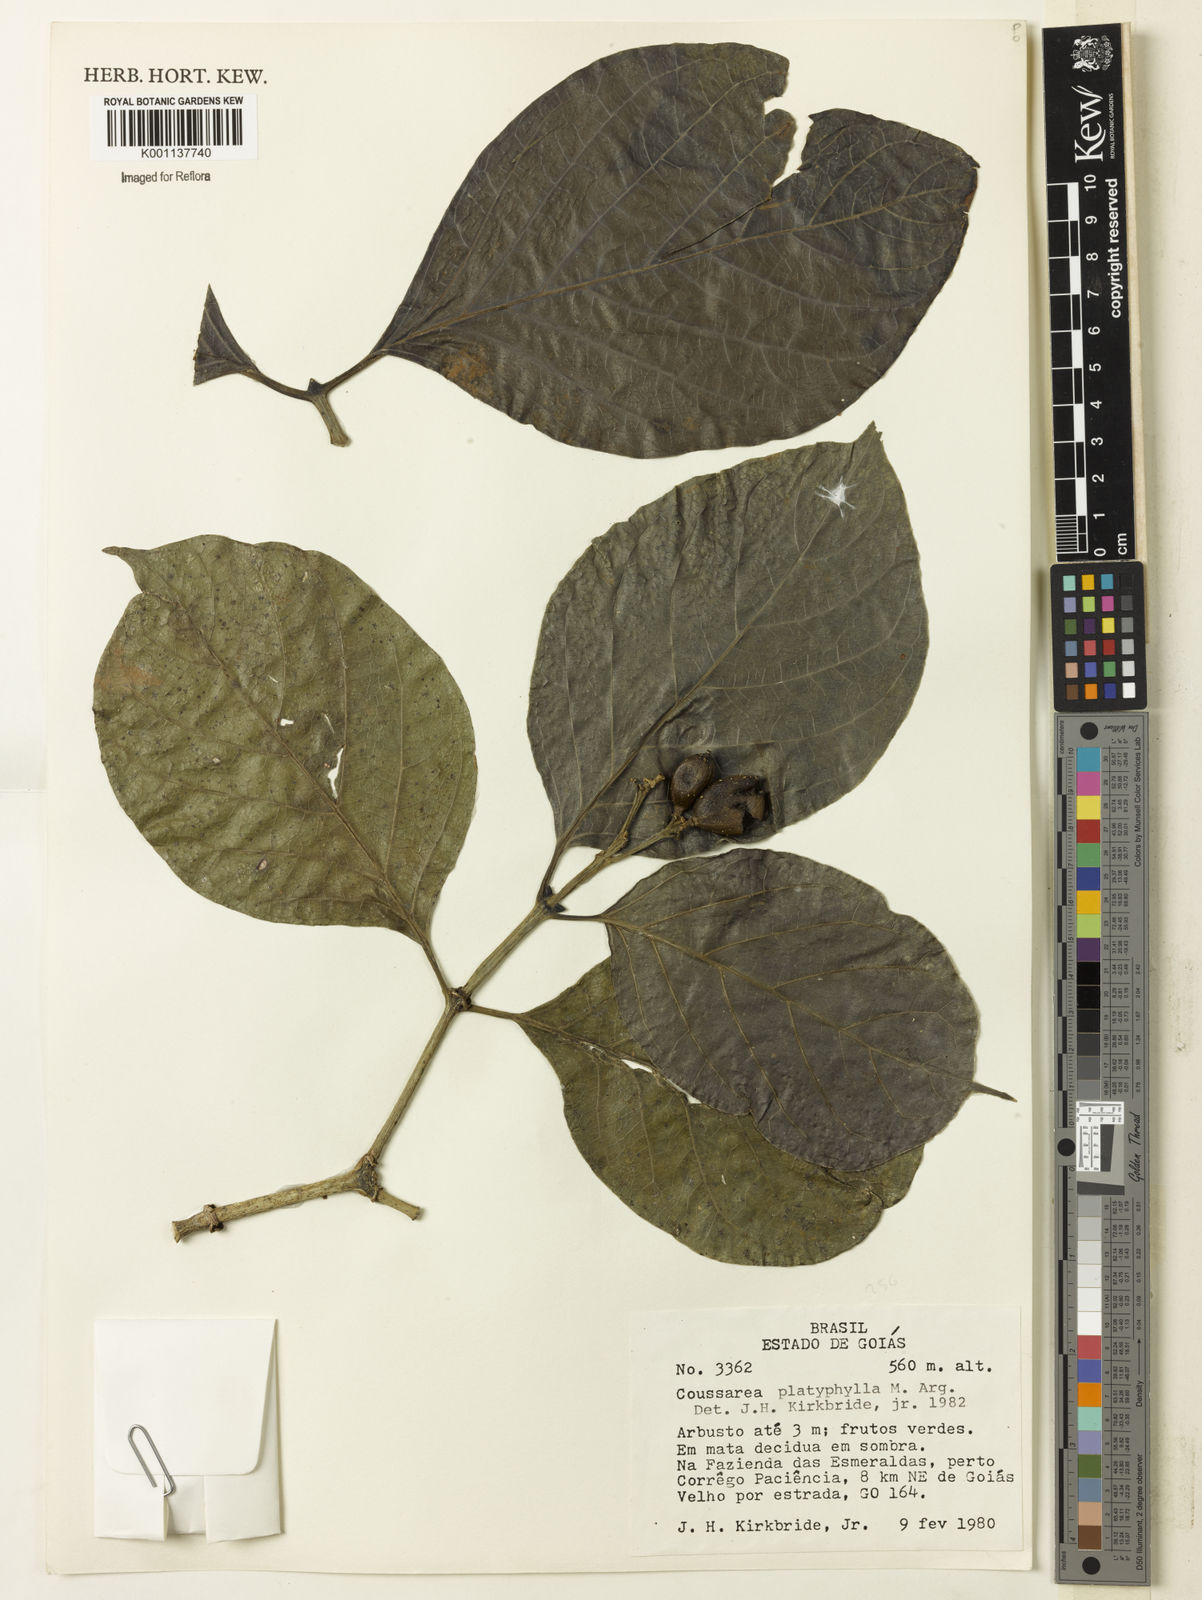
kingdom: Plantae
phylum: Tracheophyta
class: Magnoliopsida
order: Gentianales
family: Rubiaceae
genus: Coussarea
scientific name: Coussarea
